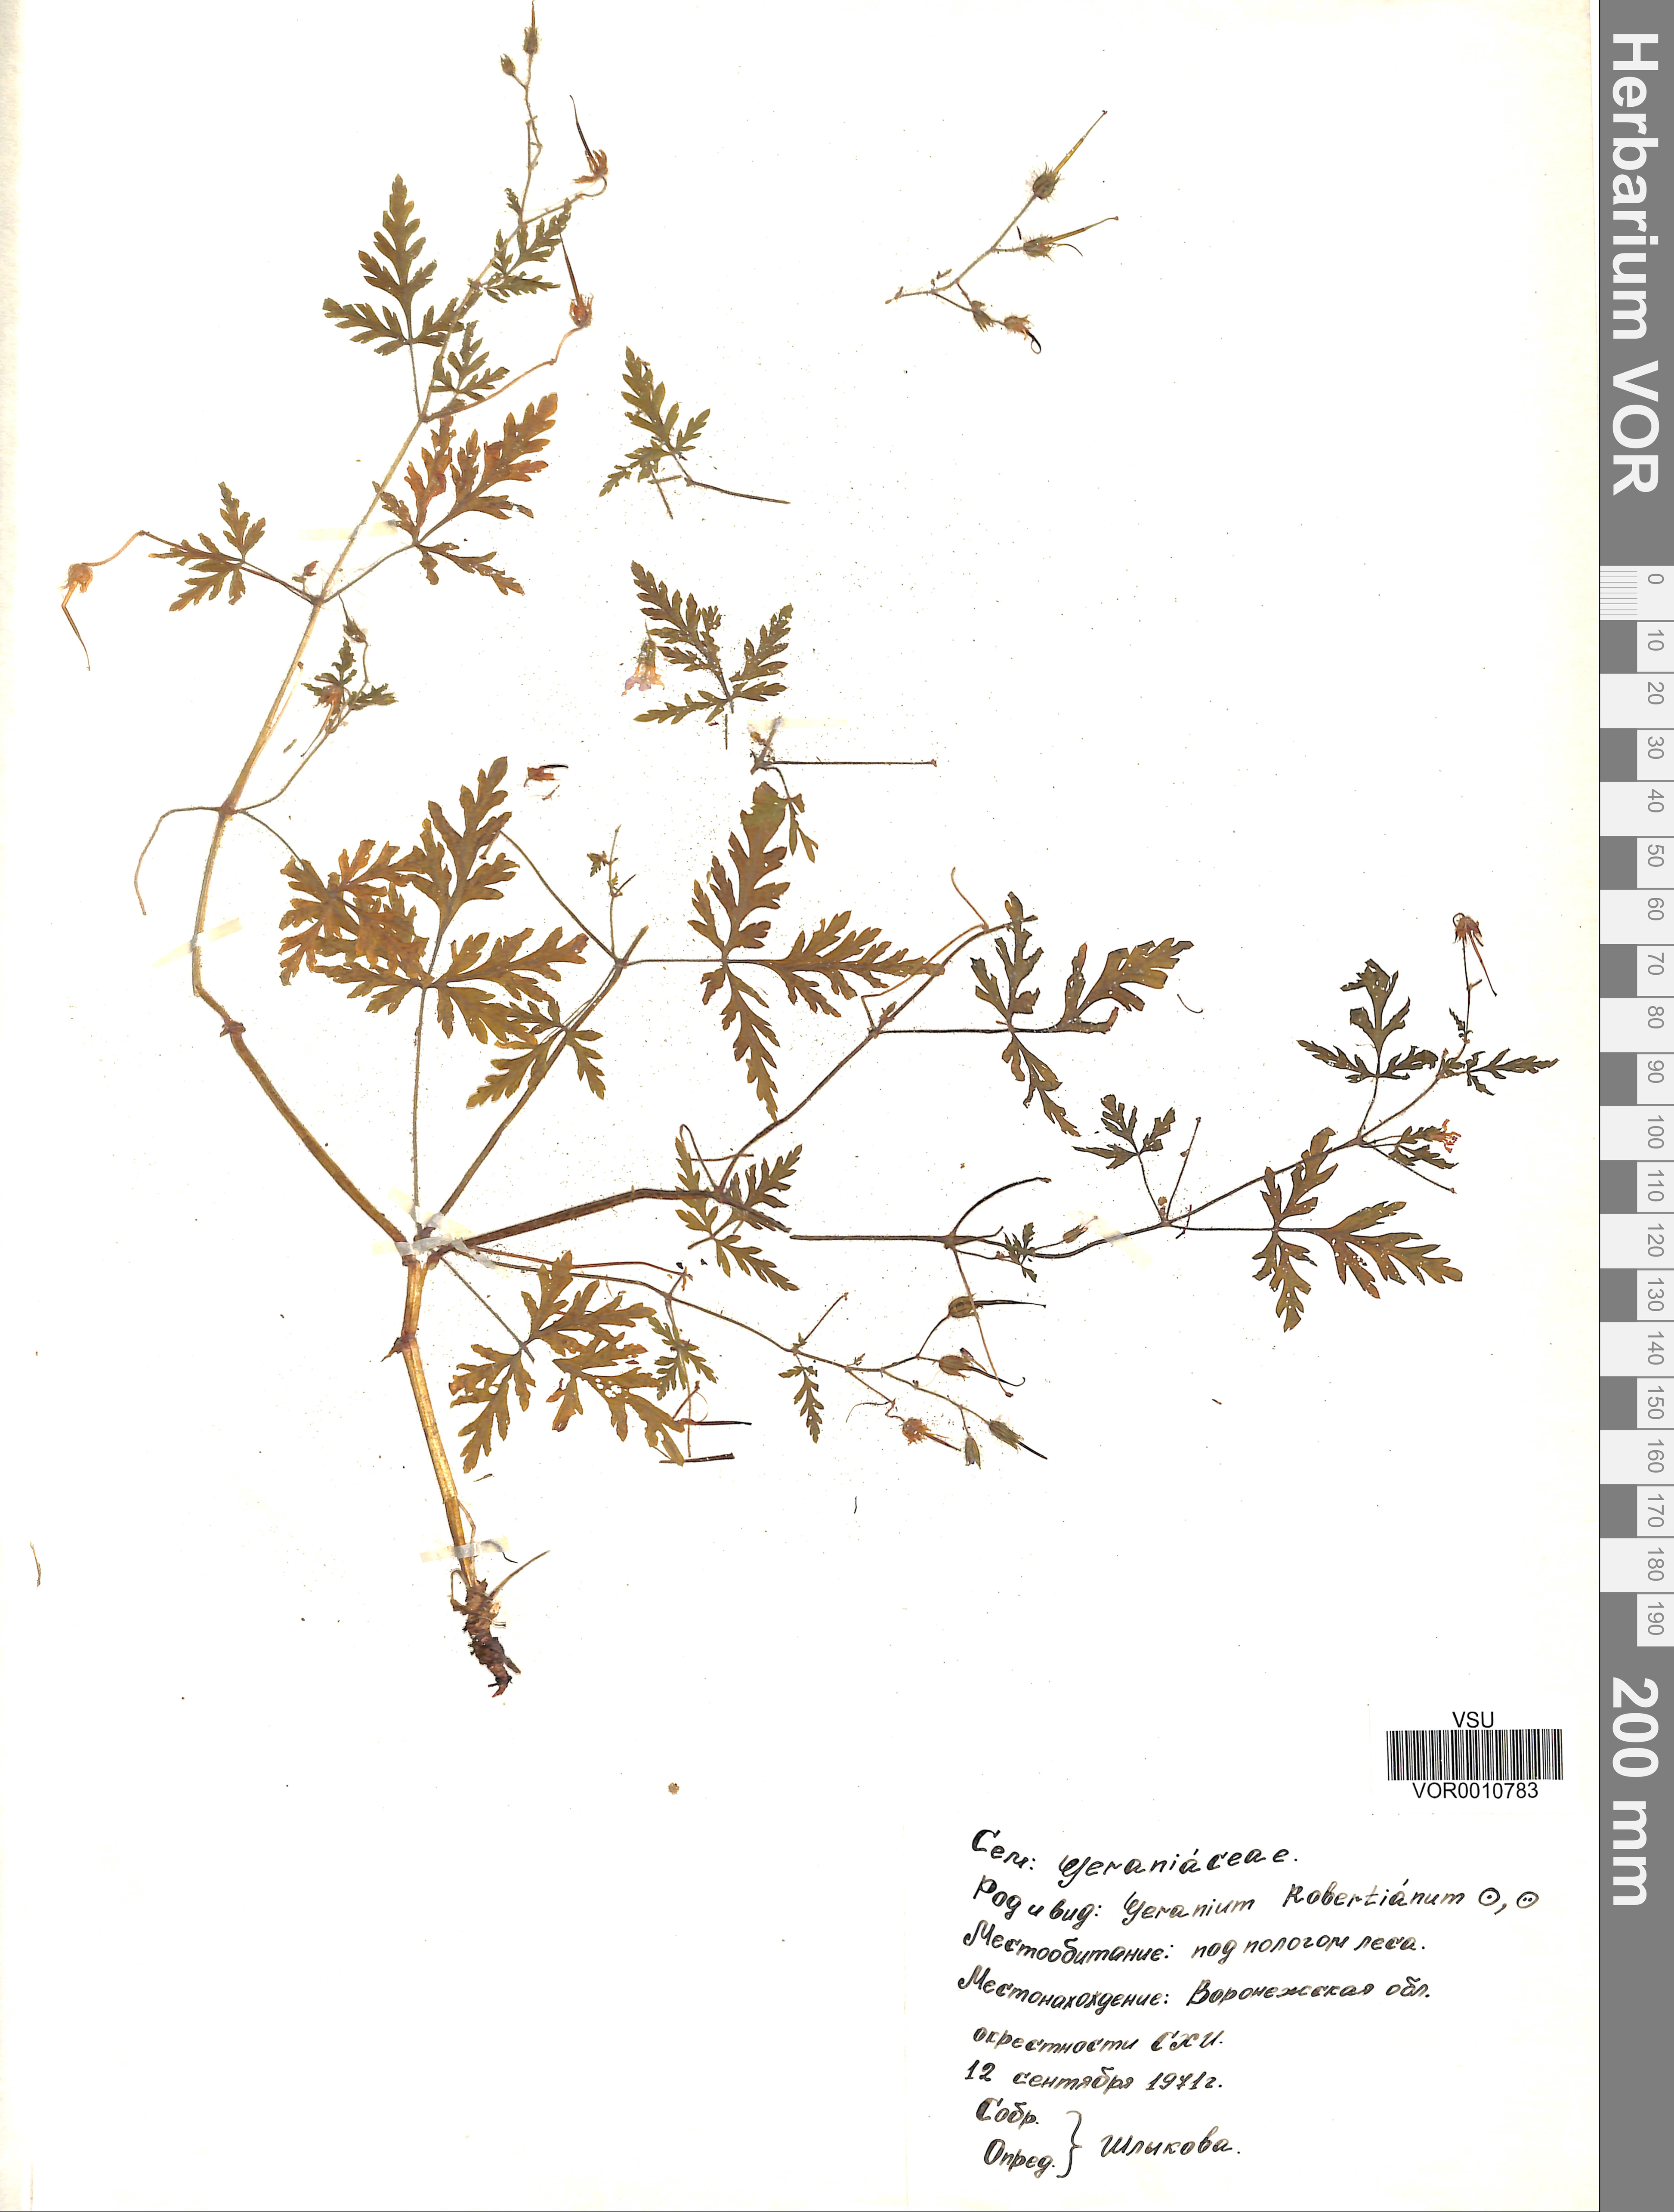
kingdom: Plantae
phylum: Tracheophyta
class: Magnoliopsida
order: Geraniales
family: Geraniaceae
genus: Geranium
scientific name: Geranium robertianum
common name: Herb-robert
